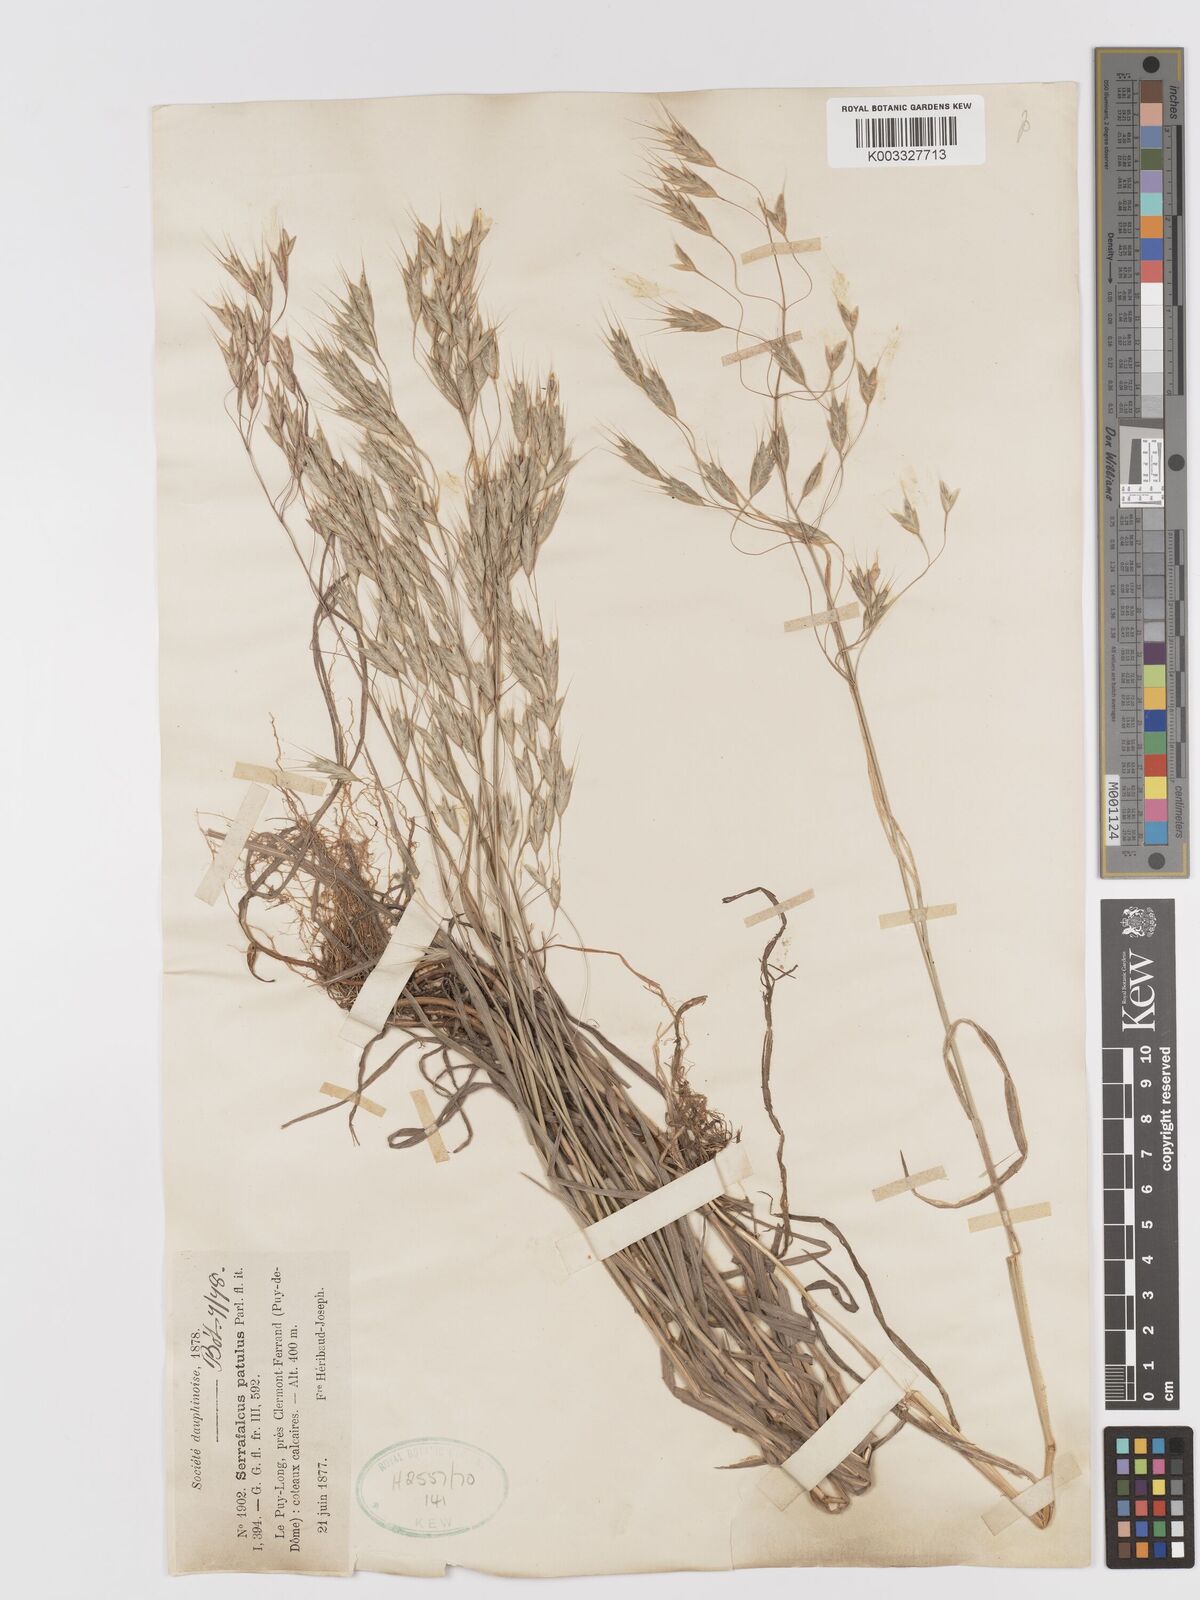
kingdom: Plantae
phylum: Tracheophyta
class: Liliopsida
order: Poales
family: Poaceae
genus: Bromus
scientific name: Bromus japonicus
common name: Japanese brome
